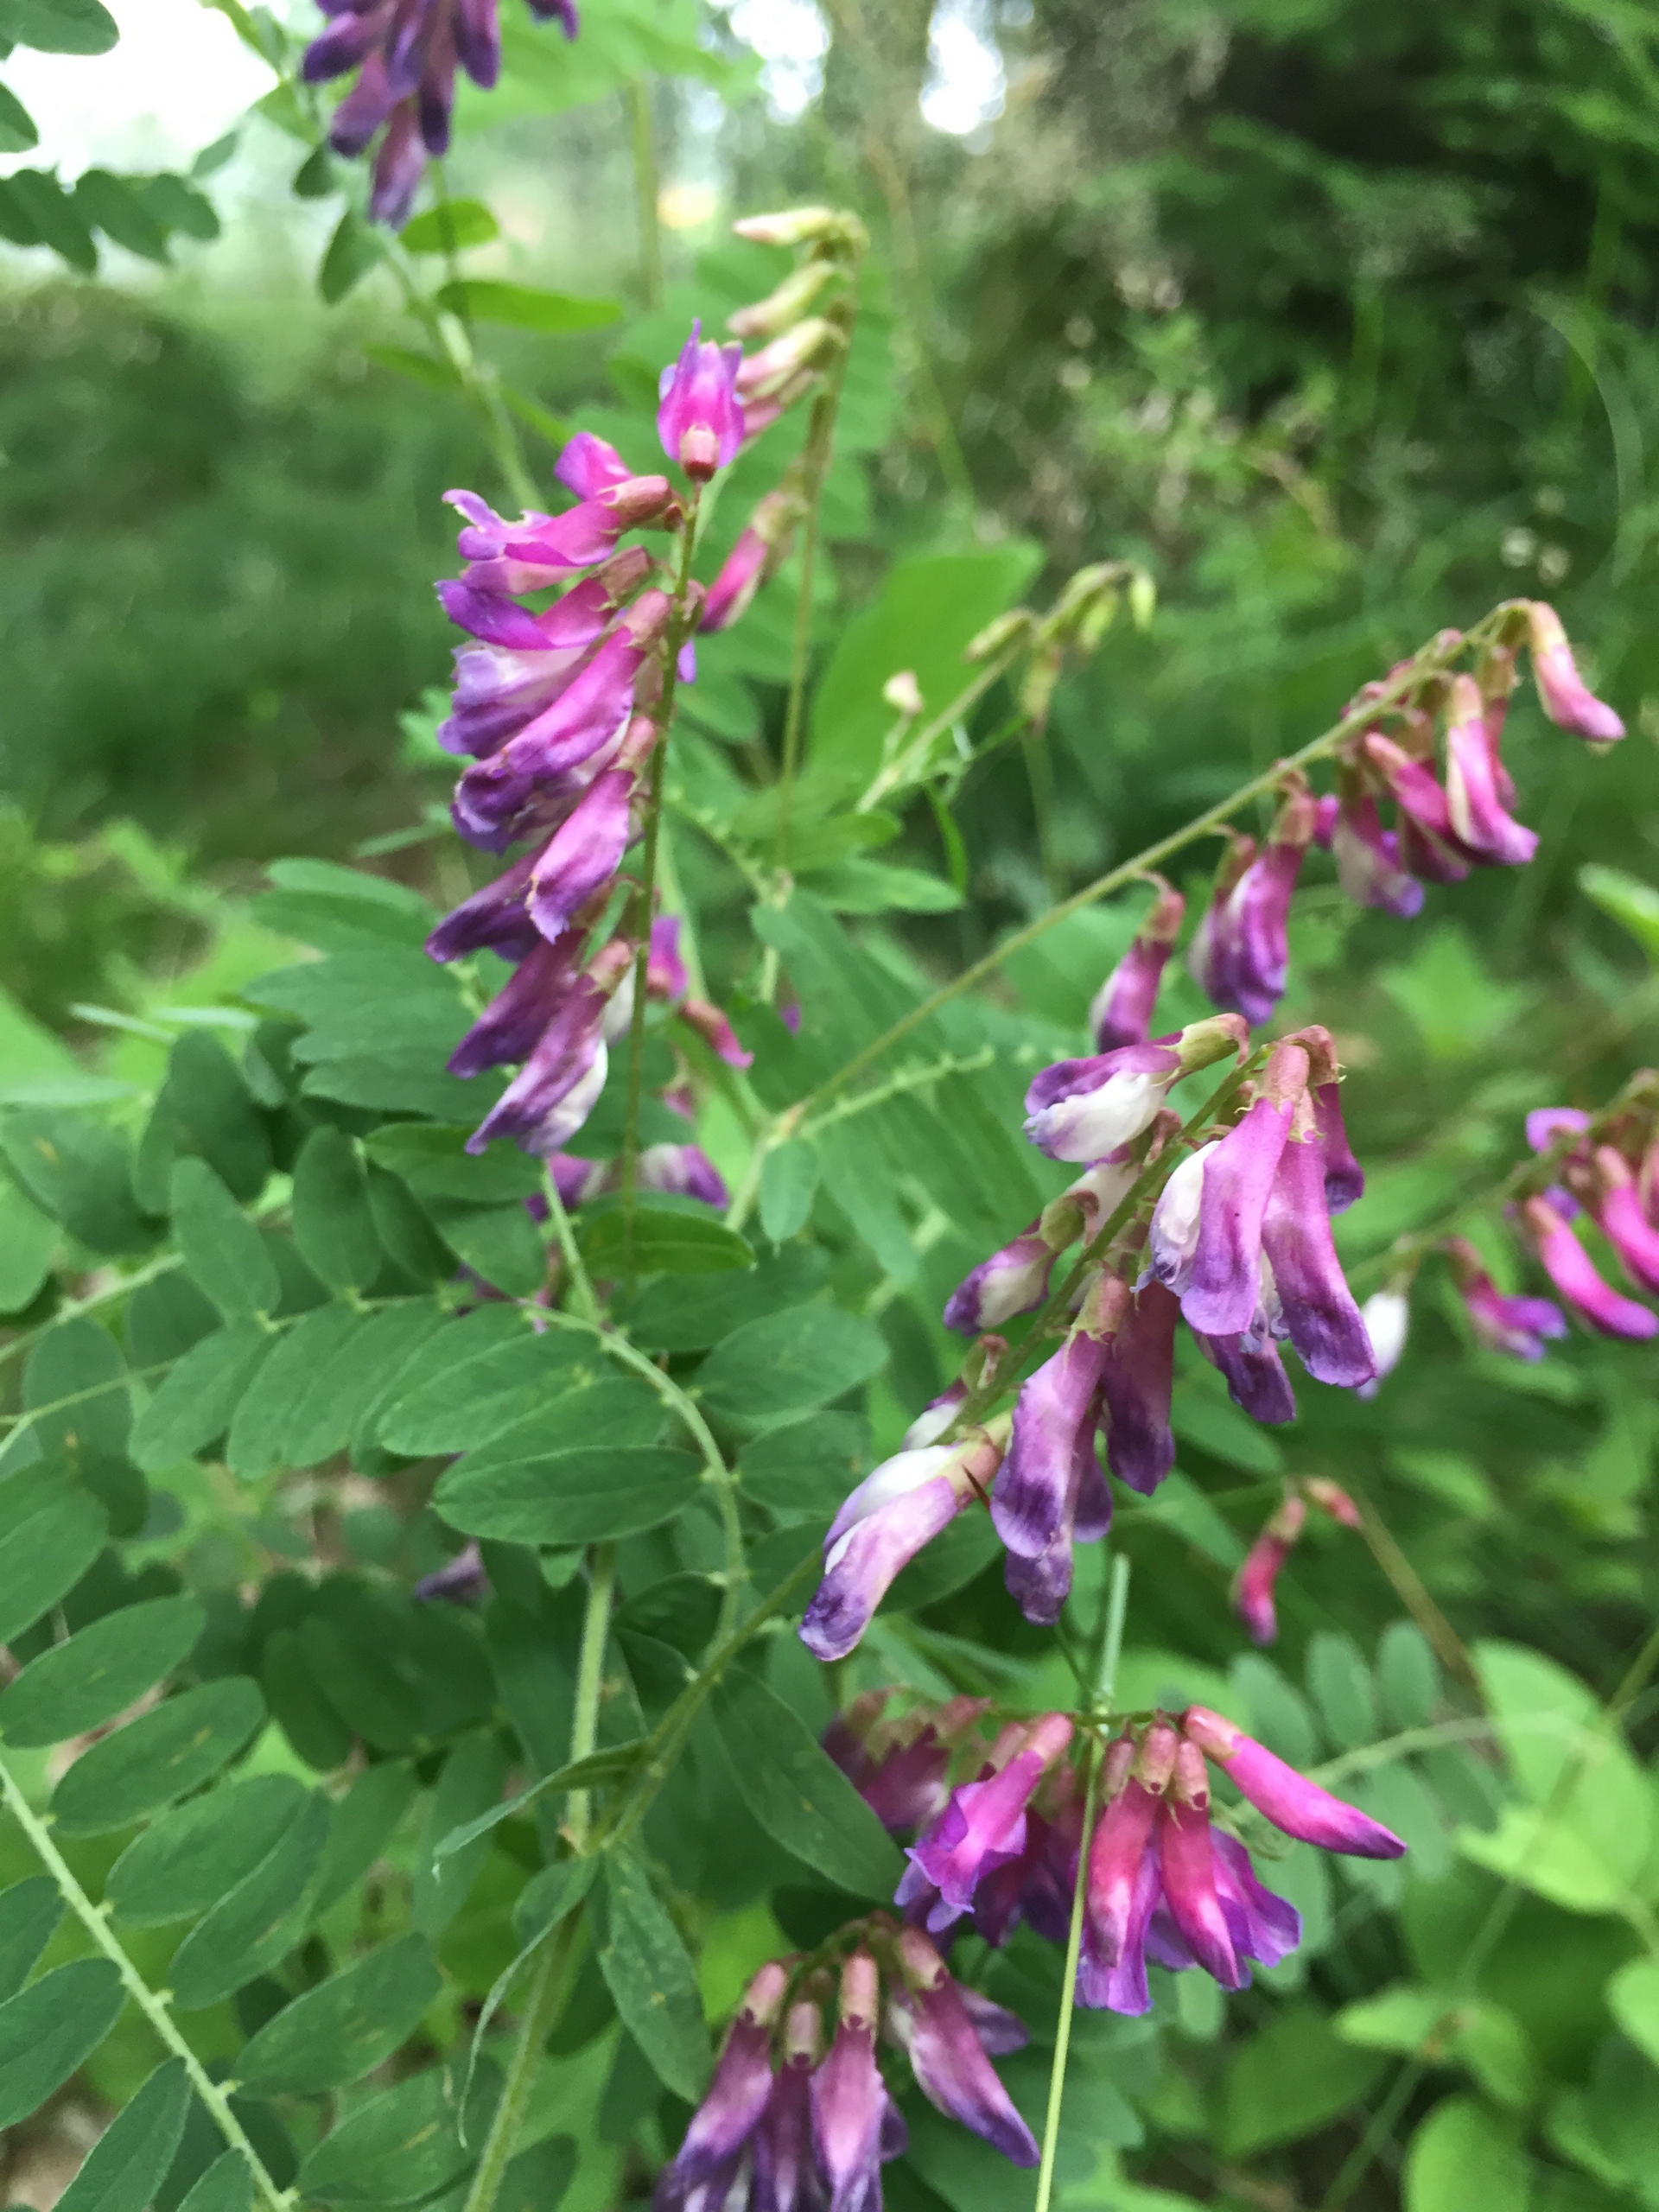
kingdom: Plantae
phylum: Tracheophyta
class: Magnoliopsida
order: Fabales
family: Fabaceae
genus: Vicia
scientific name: Vicia cassubica
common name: Kassubisk vikke
